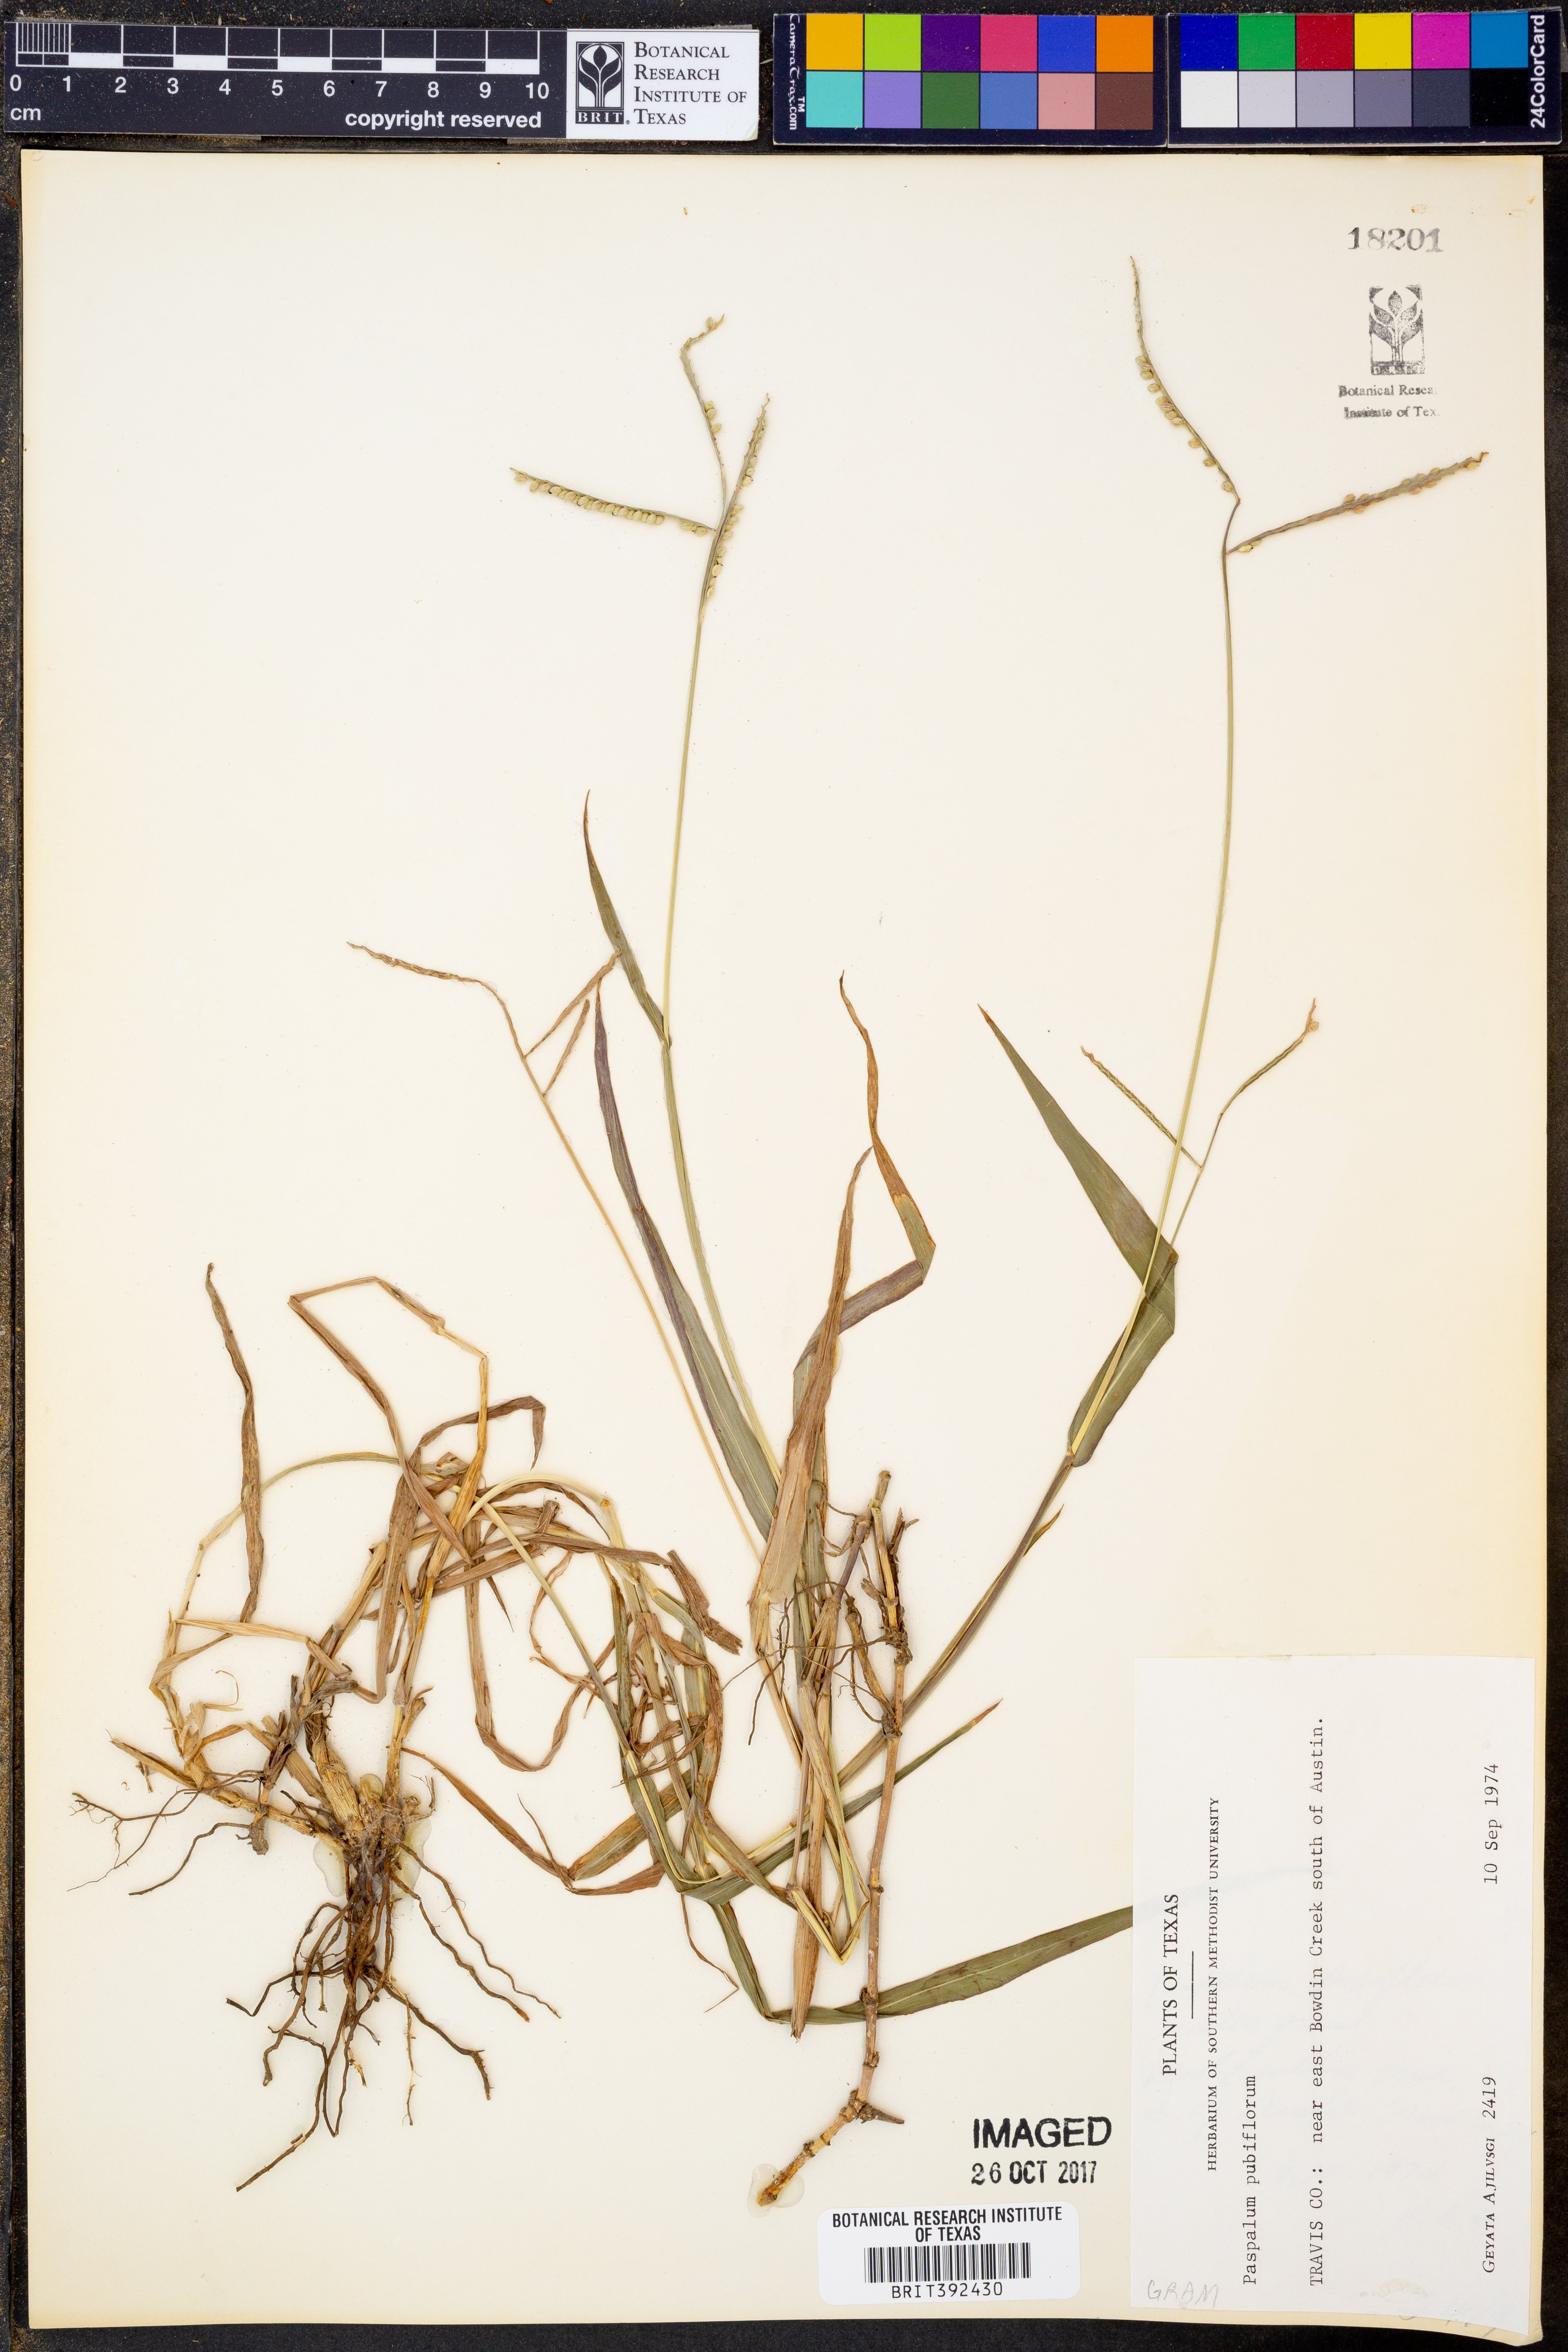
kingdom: Plantae
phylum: Tracheophyta
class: Liliopsida
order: Poales
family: Poaceae
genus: Paspalum
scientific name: Paspalum pubiflorum
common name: Hairy-seed paspalum
